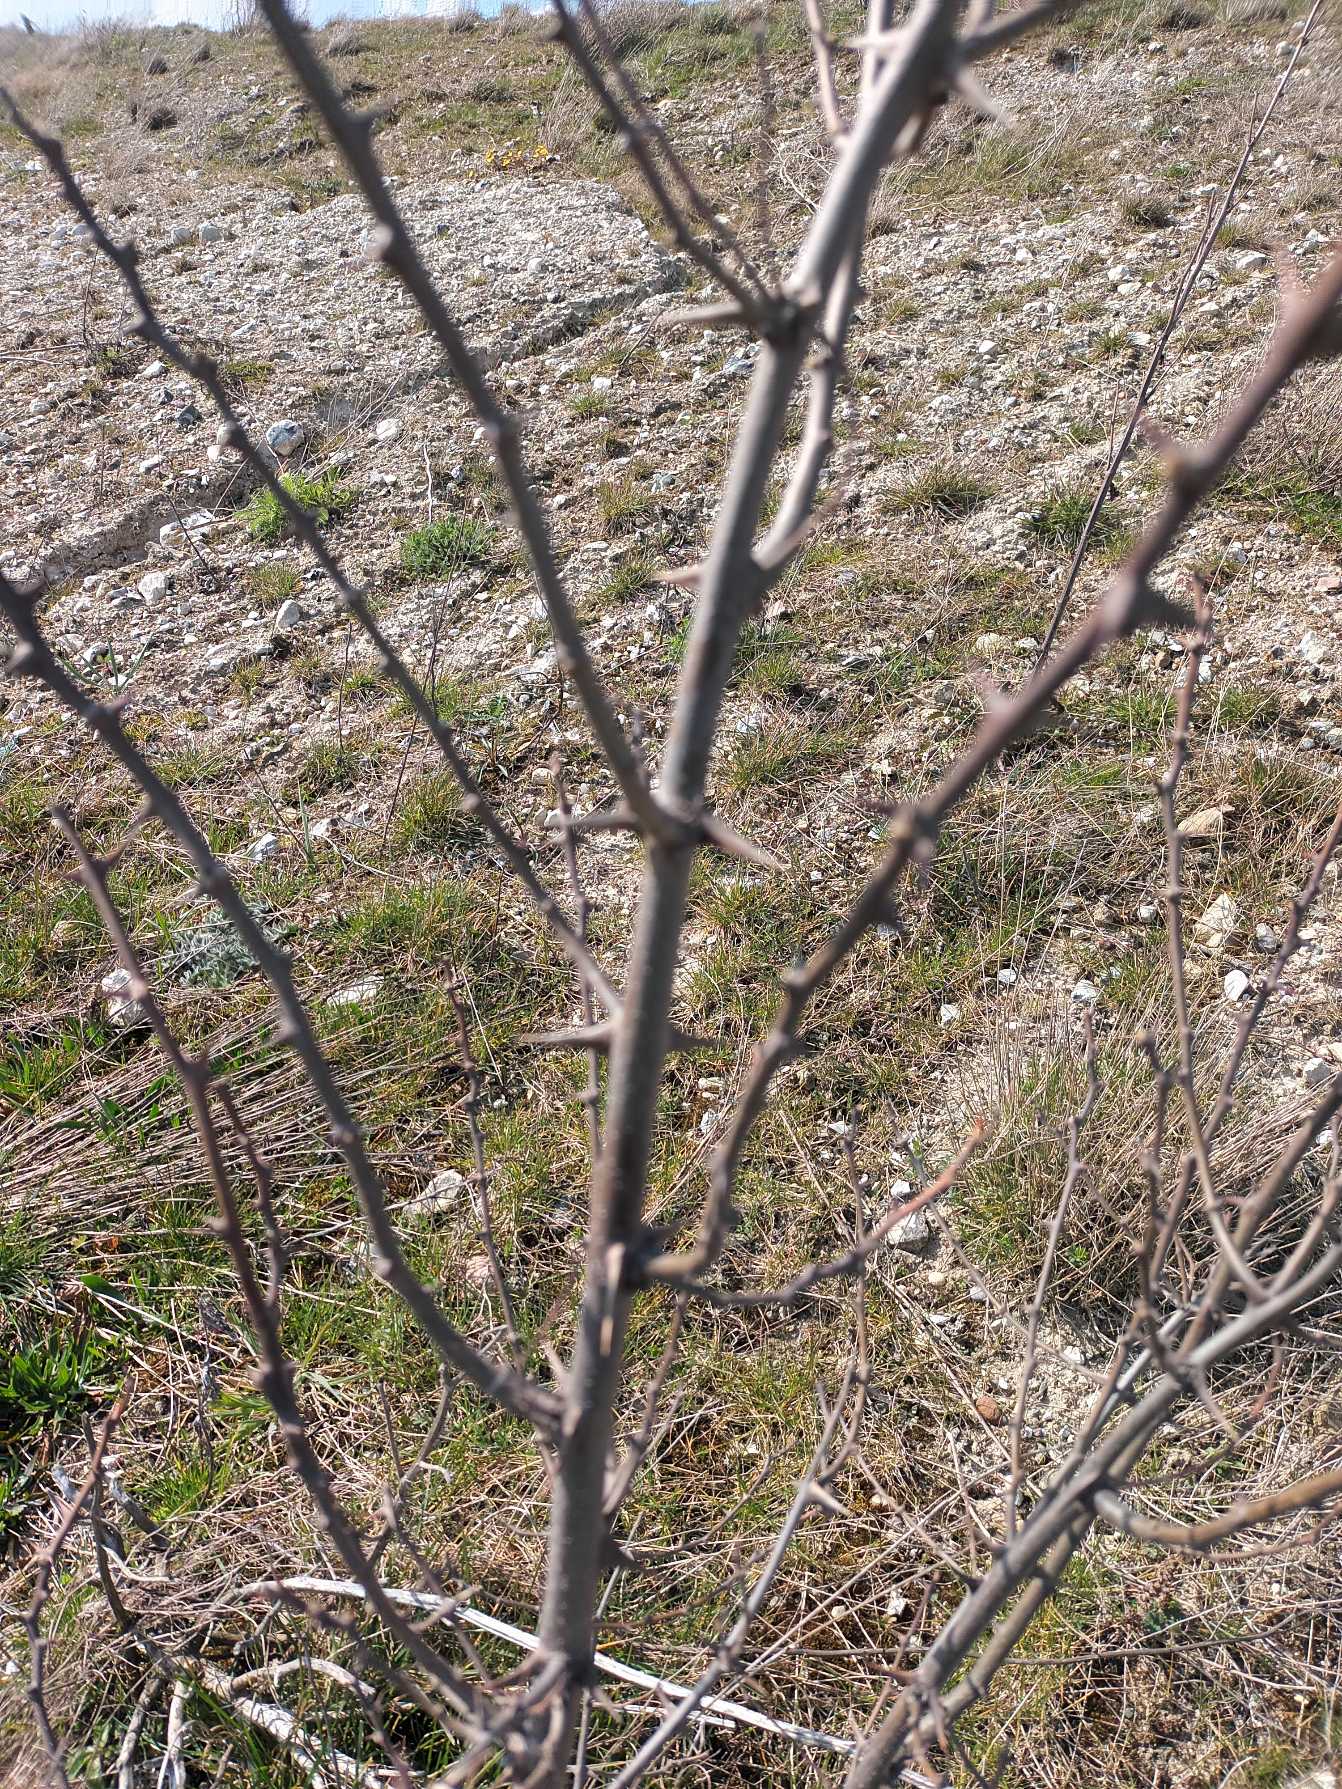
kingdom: Plantae
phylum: Tracheophyta
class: Magnoliopsida
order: Fabales
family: Fabaceae
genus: Robinia
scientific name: Robinia pseudoacacia
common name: Robinie
